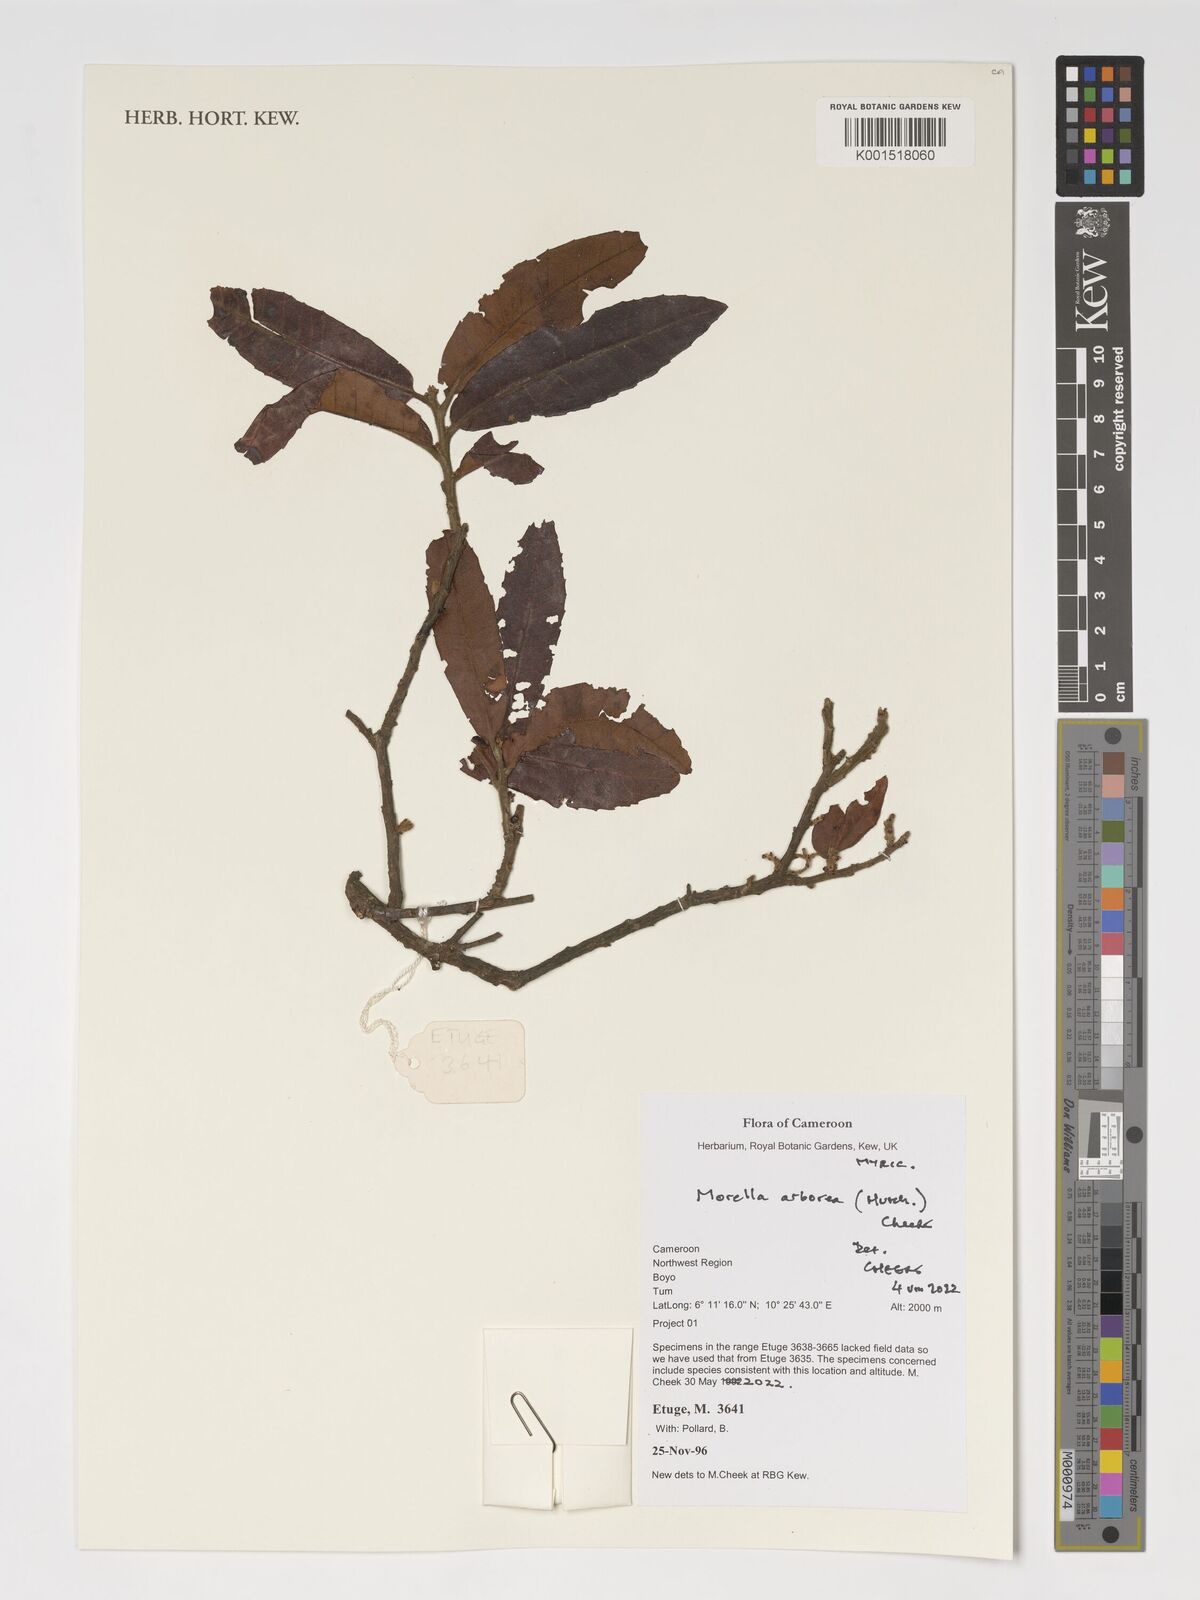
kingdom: Plantae
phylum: Tracheophyta
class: Magnoliopsida
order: Fagales
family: Myricaceae
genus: Morella
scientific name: Morella arborea
